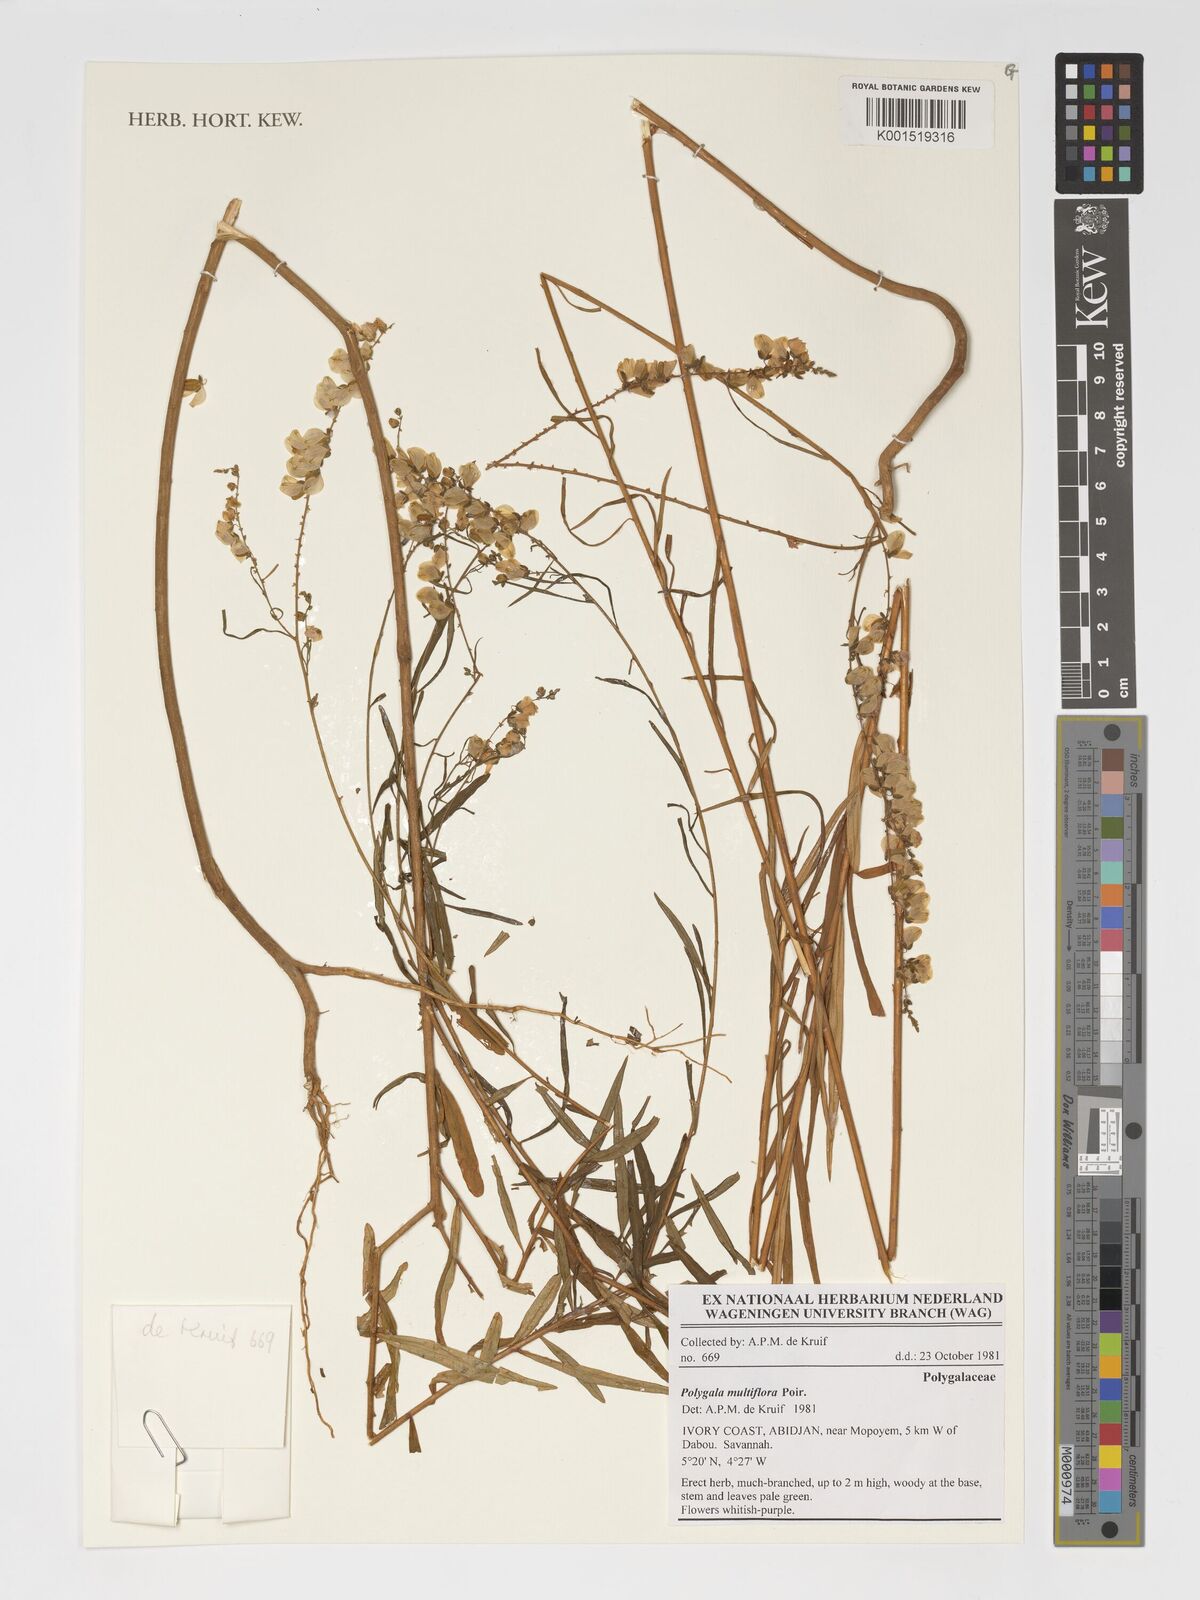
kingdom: Plantae
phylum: Tracheophyta
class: Magnoliopsida
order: Fabales
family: Polygalaceae
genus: Polygala
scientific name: Polygala multiflora
